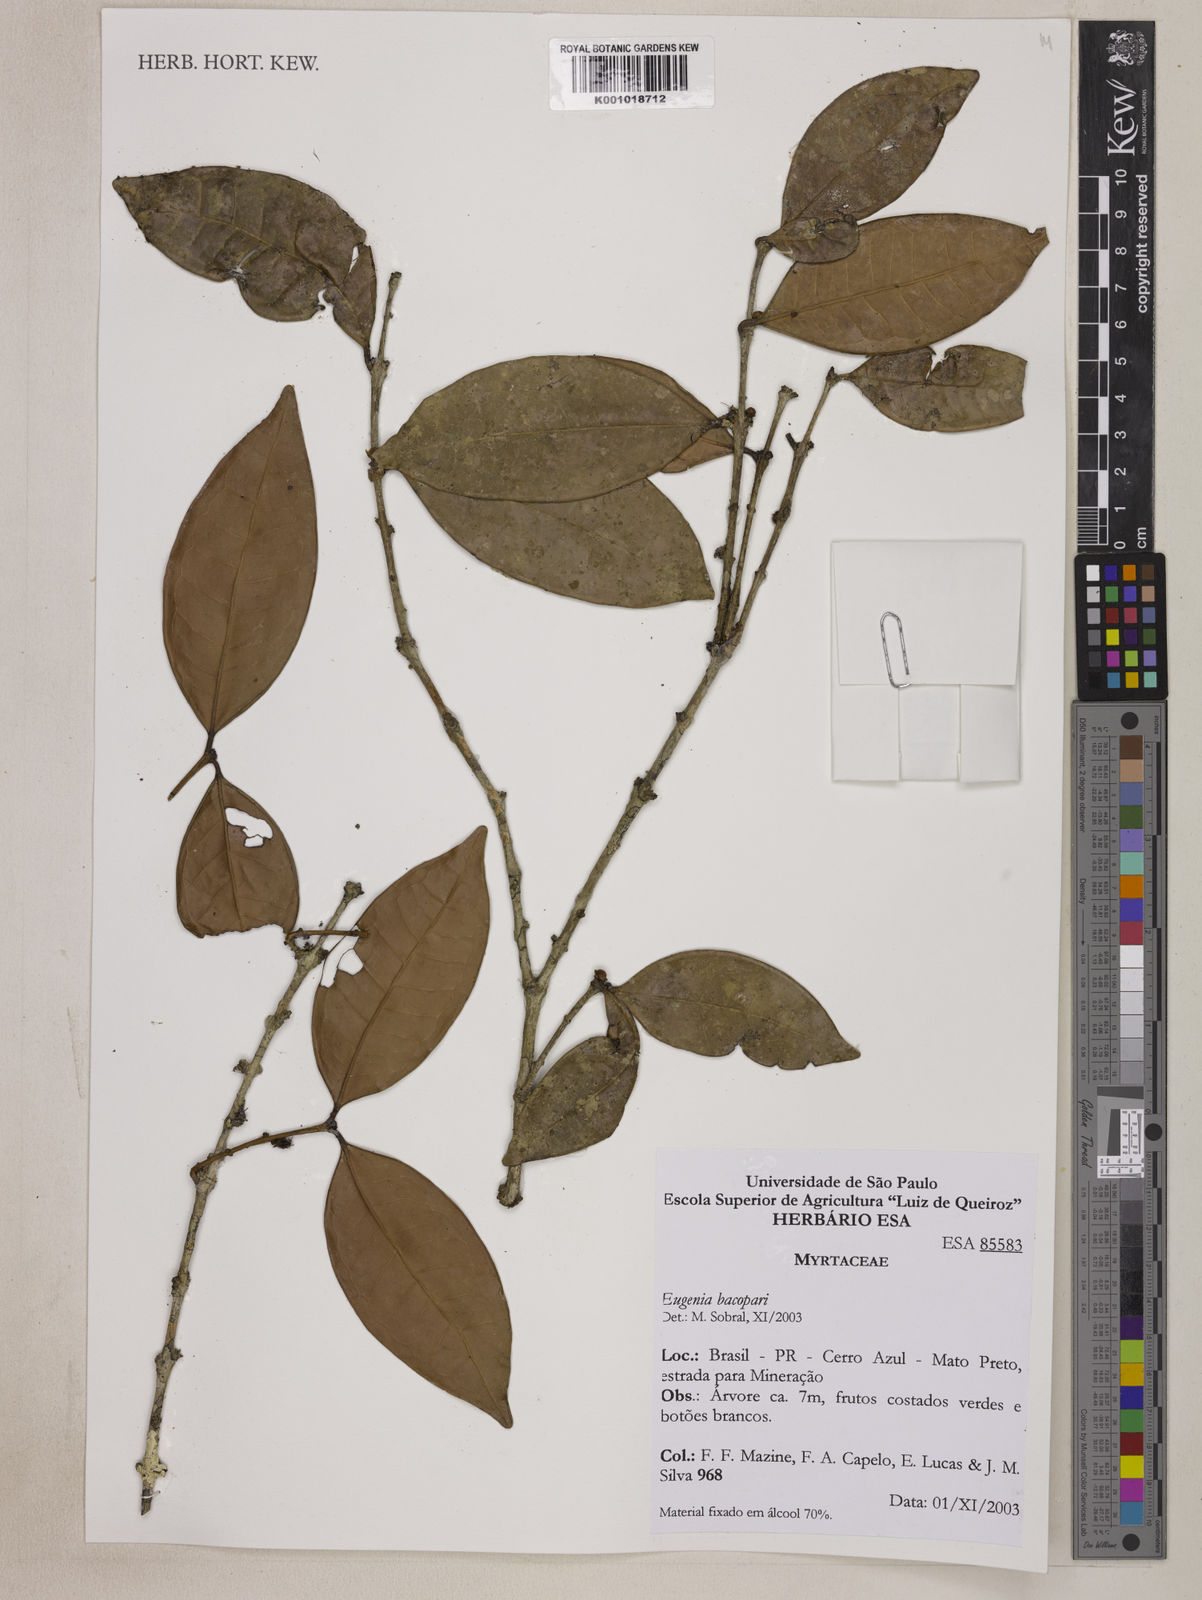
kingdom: Plantae
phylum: Tracheophyta
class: Magnoliopsida
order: Myrtales
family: Myrtaceae
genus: Eugenia
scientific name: Eugenia bacopari
